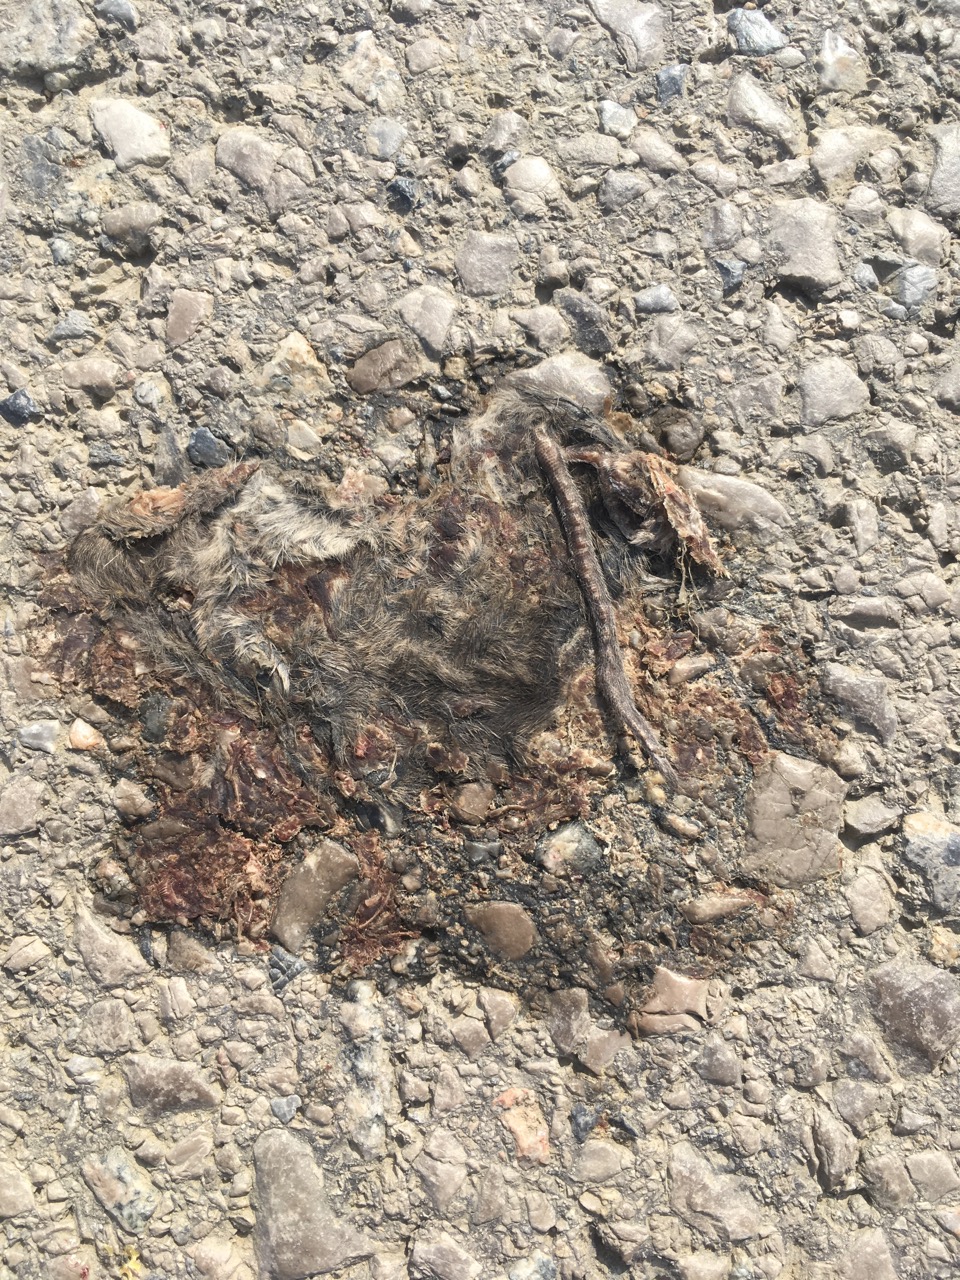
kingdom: Animalia
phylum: Chordata
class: Mammalia
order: Rodentia
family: Cricetidae
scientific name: Cricetidae
